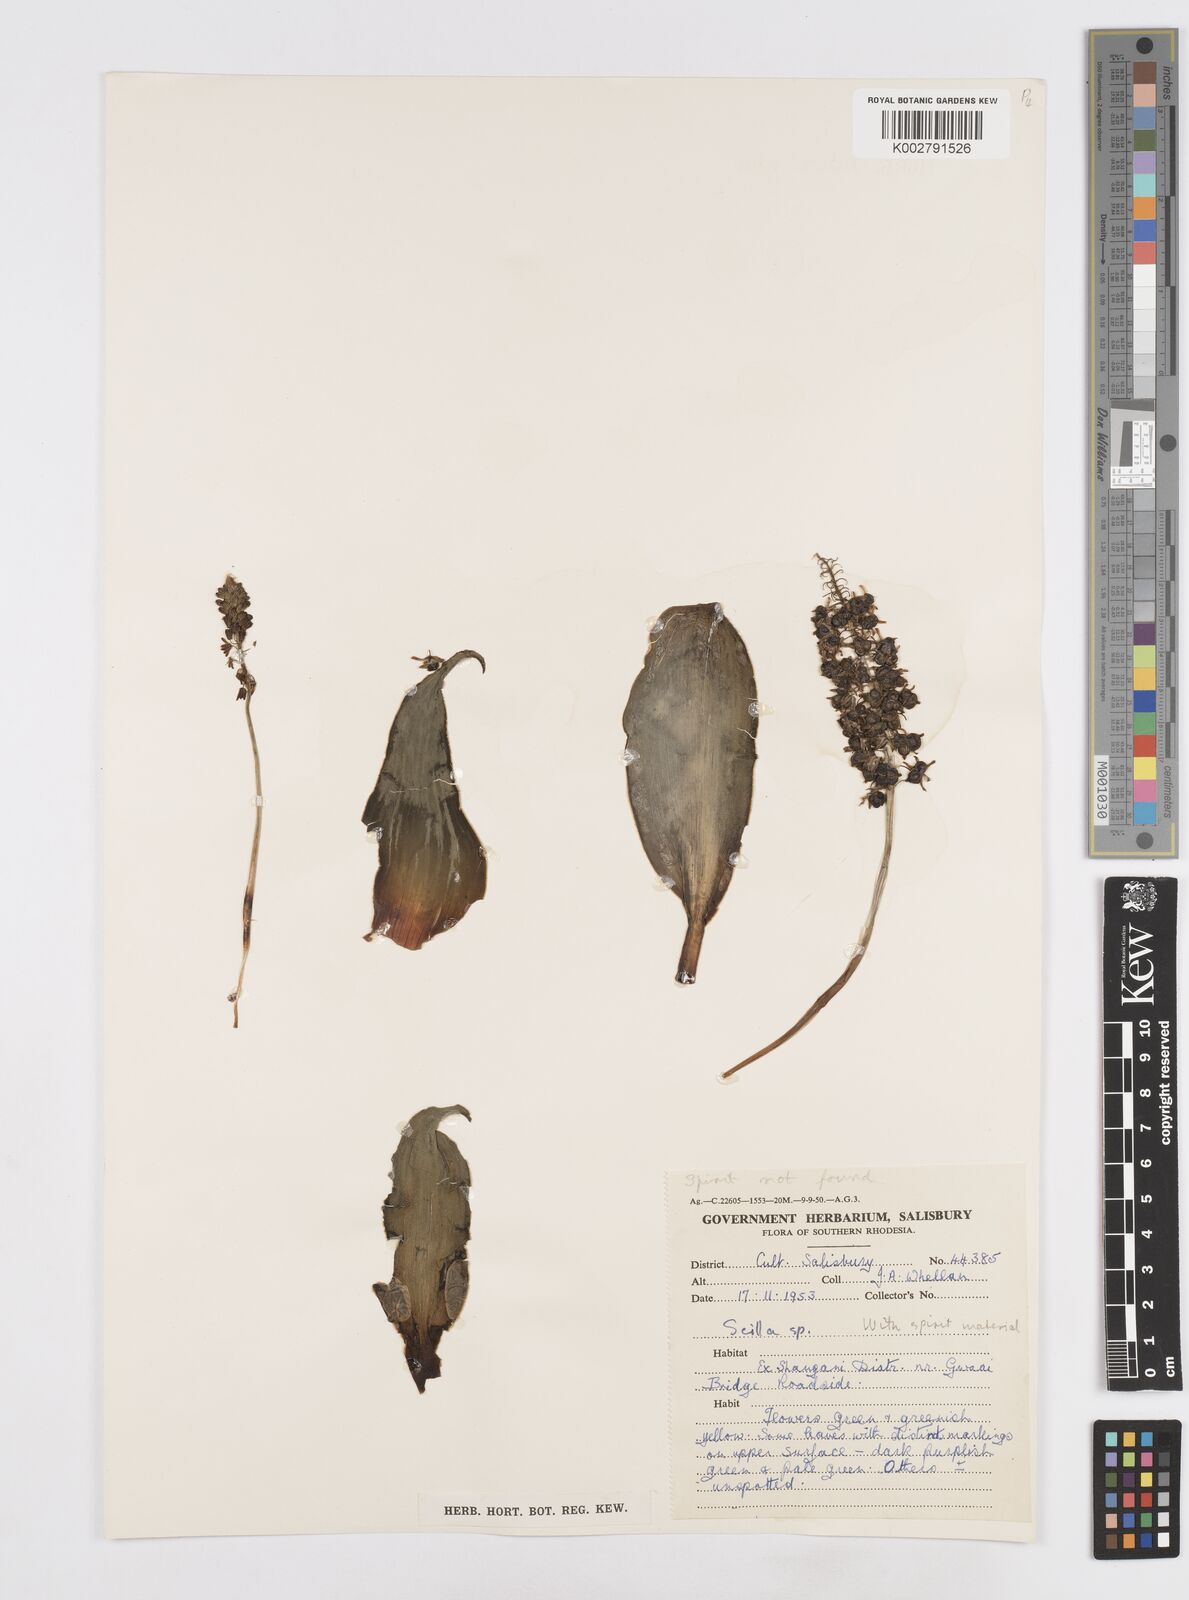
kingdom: Plantae
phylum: Tracheophyta
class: Liliopsida
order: Asparagales
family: Asparagaceae
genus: Scilla
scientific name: Scilla
